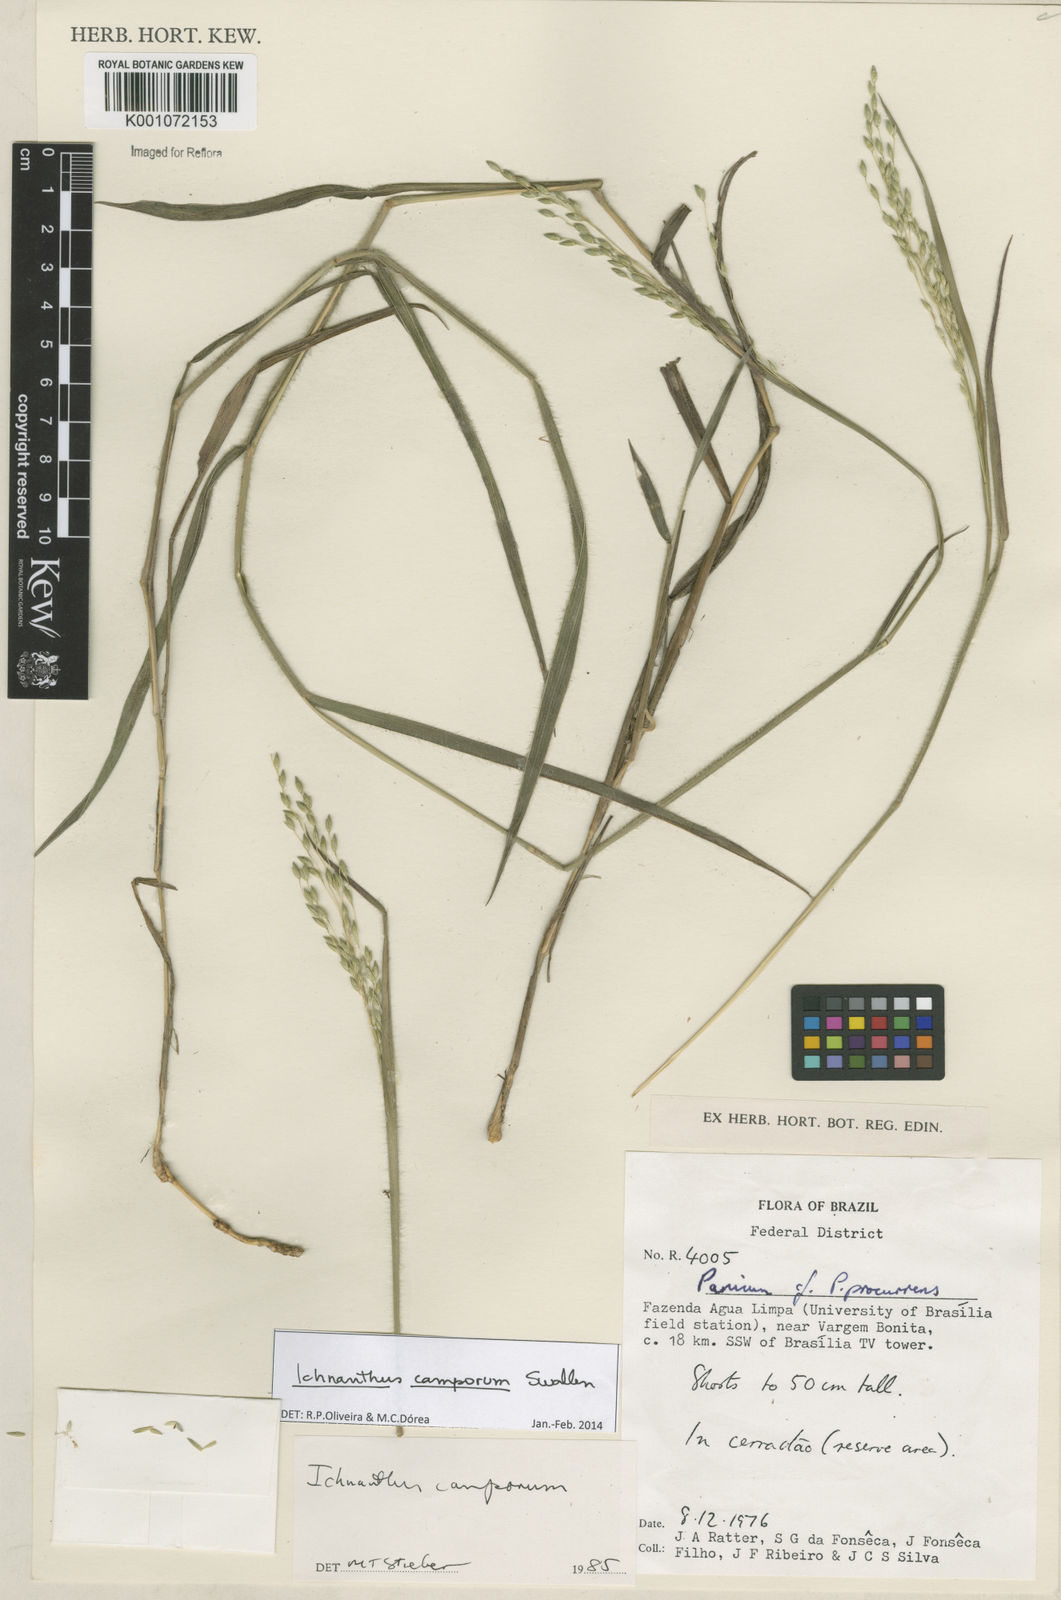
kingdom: Plantae
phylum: Tracheophyta
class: Liliopsida
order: Poales
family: Poaceae
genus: Oedochloa
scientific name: Oedochloa camporum
